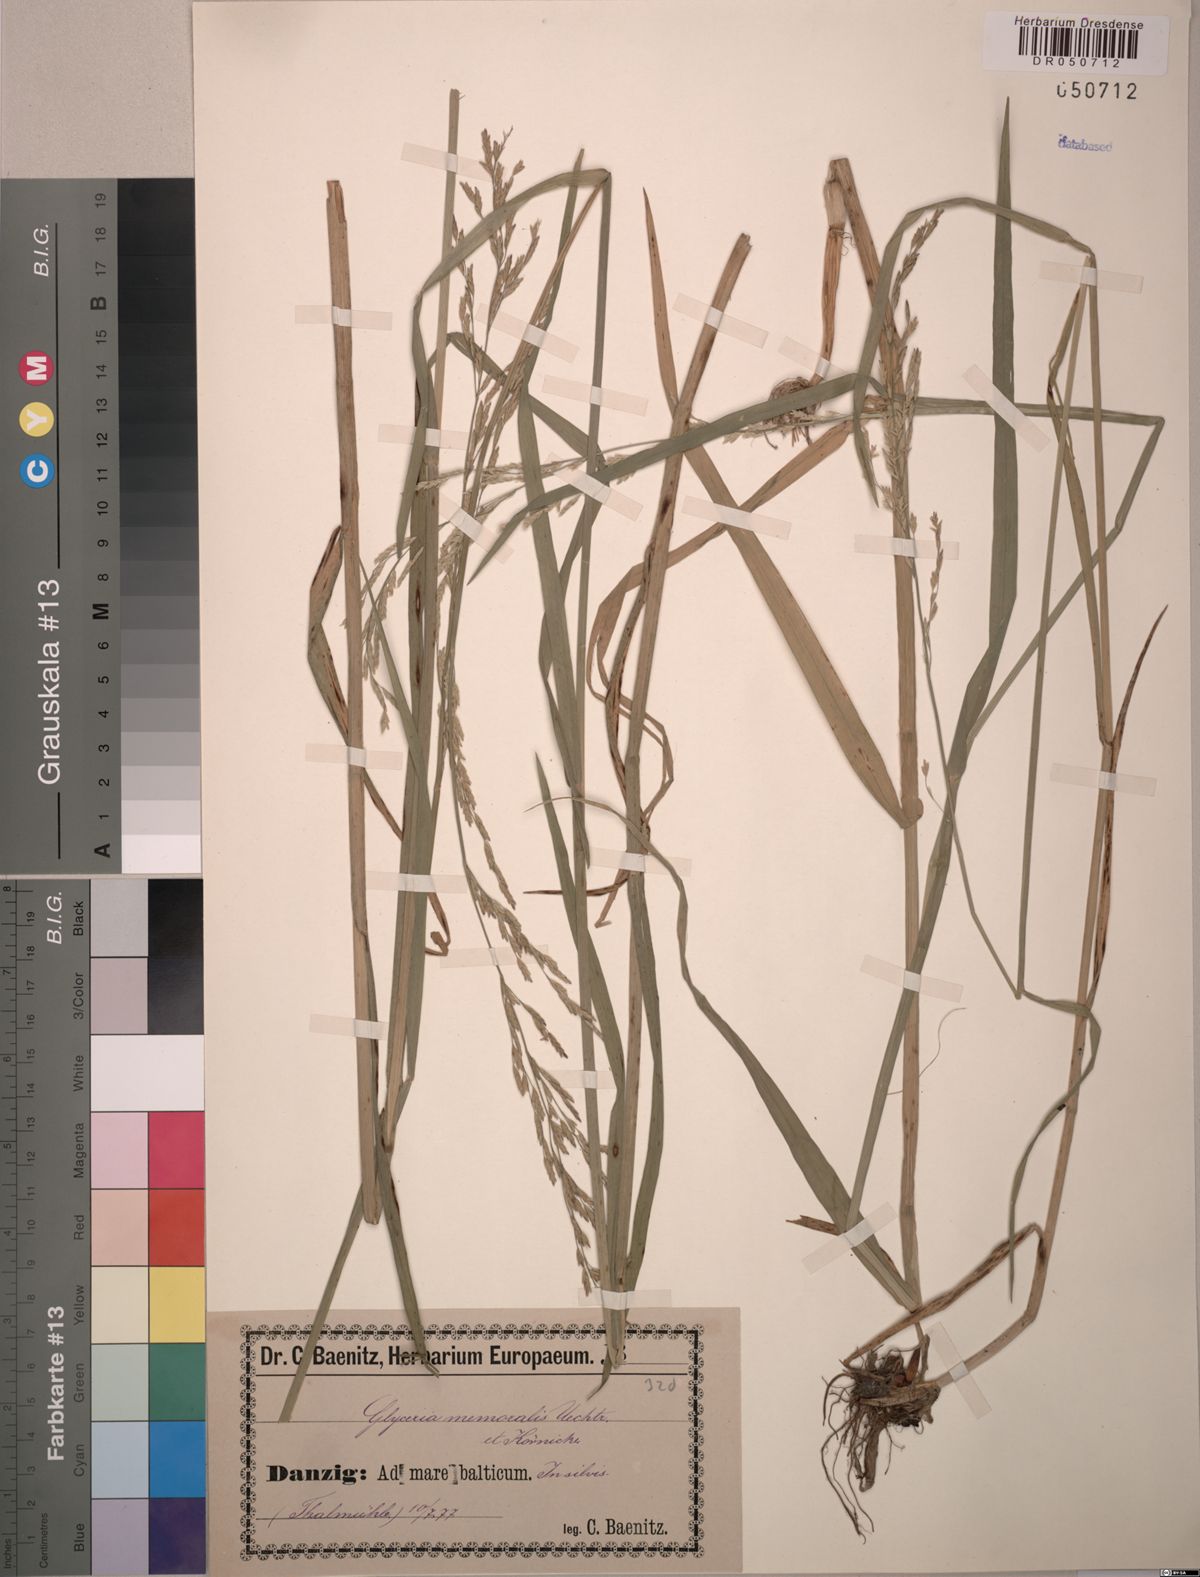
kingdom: Plantae
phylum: Tracheophyta
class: Liliopsida
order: Poales
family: Poaceae
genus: Glyceria
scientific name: Glyceria nemoralis
